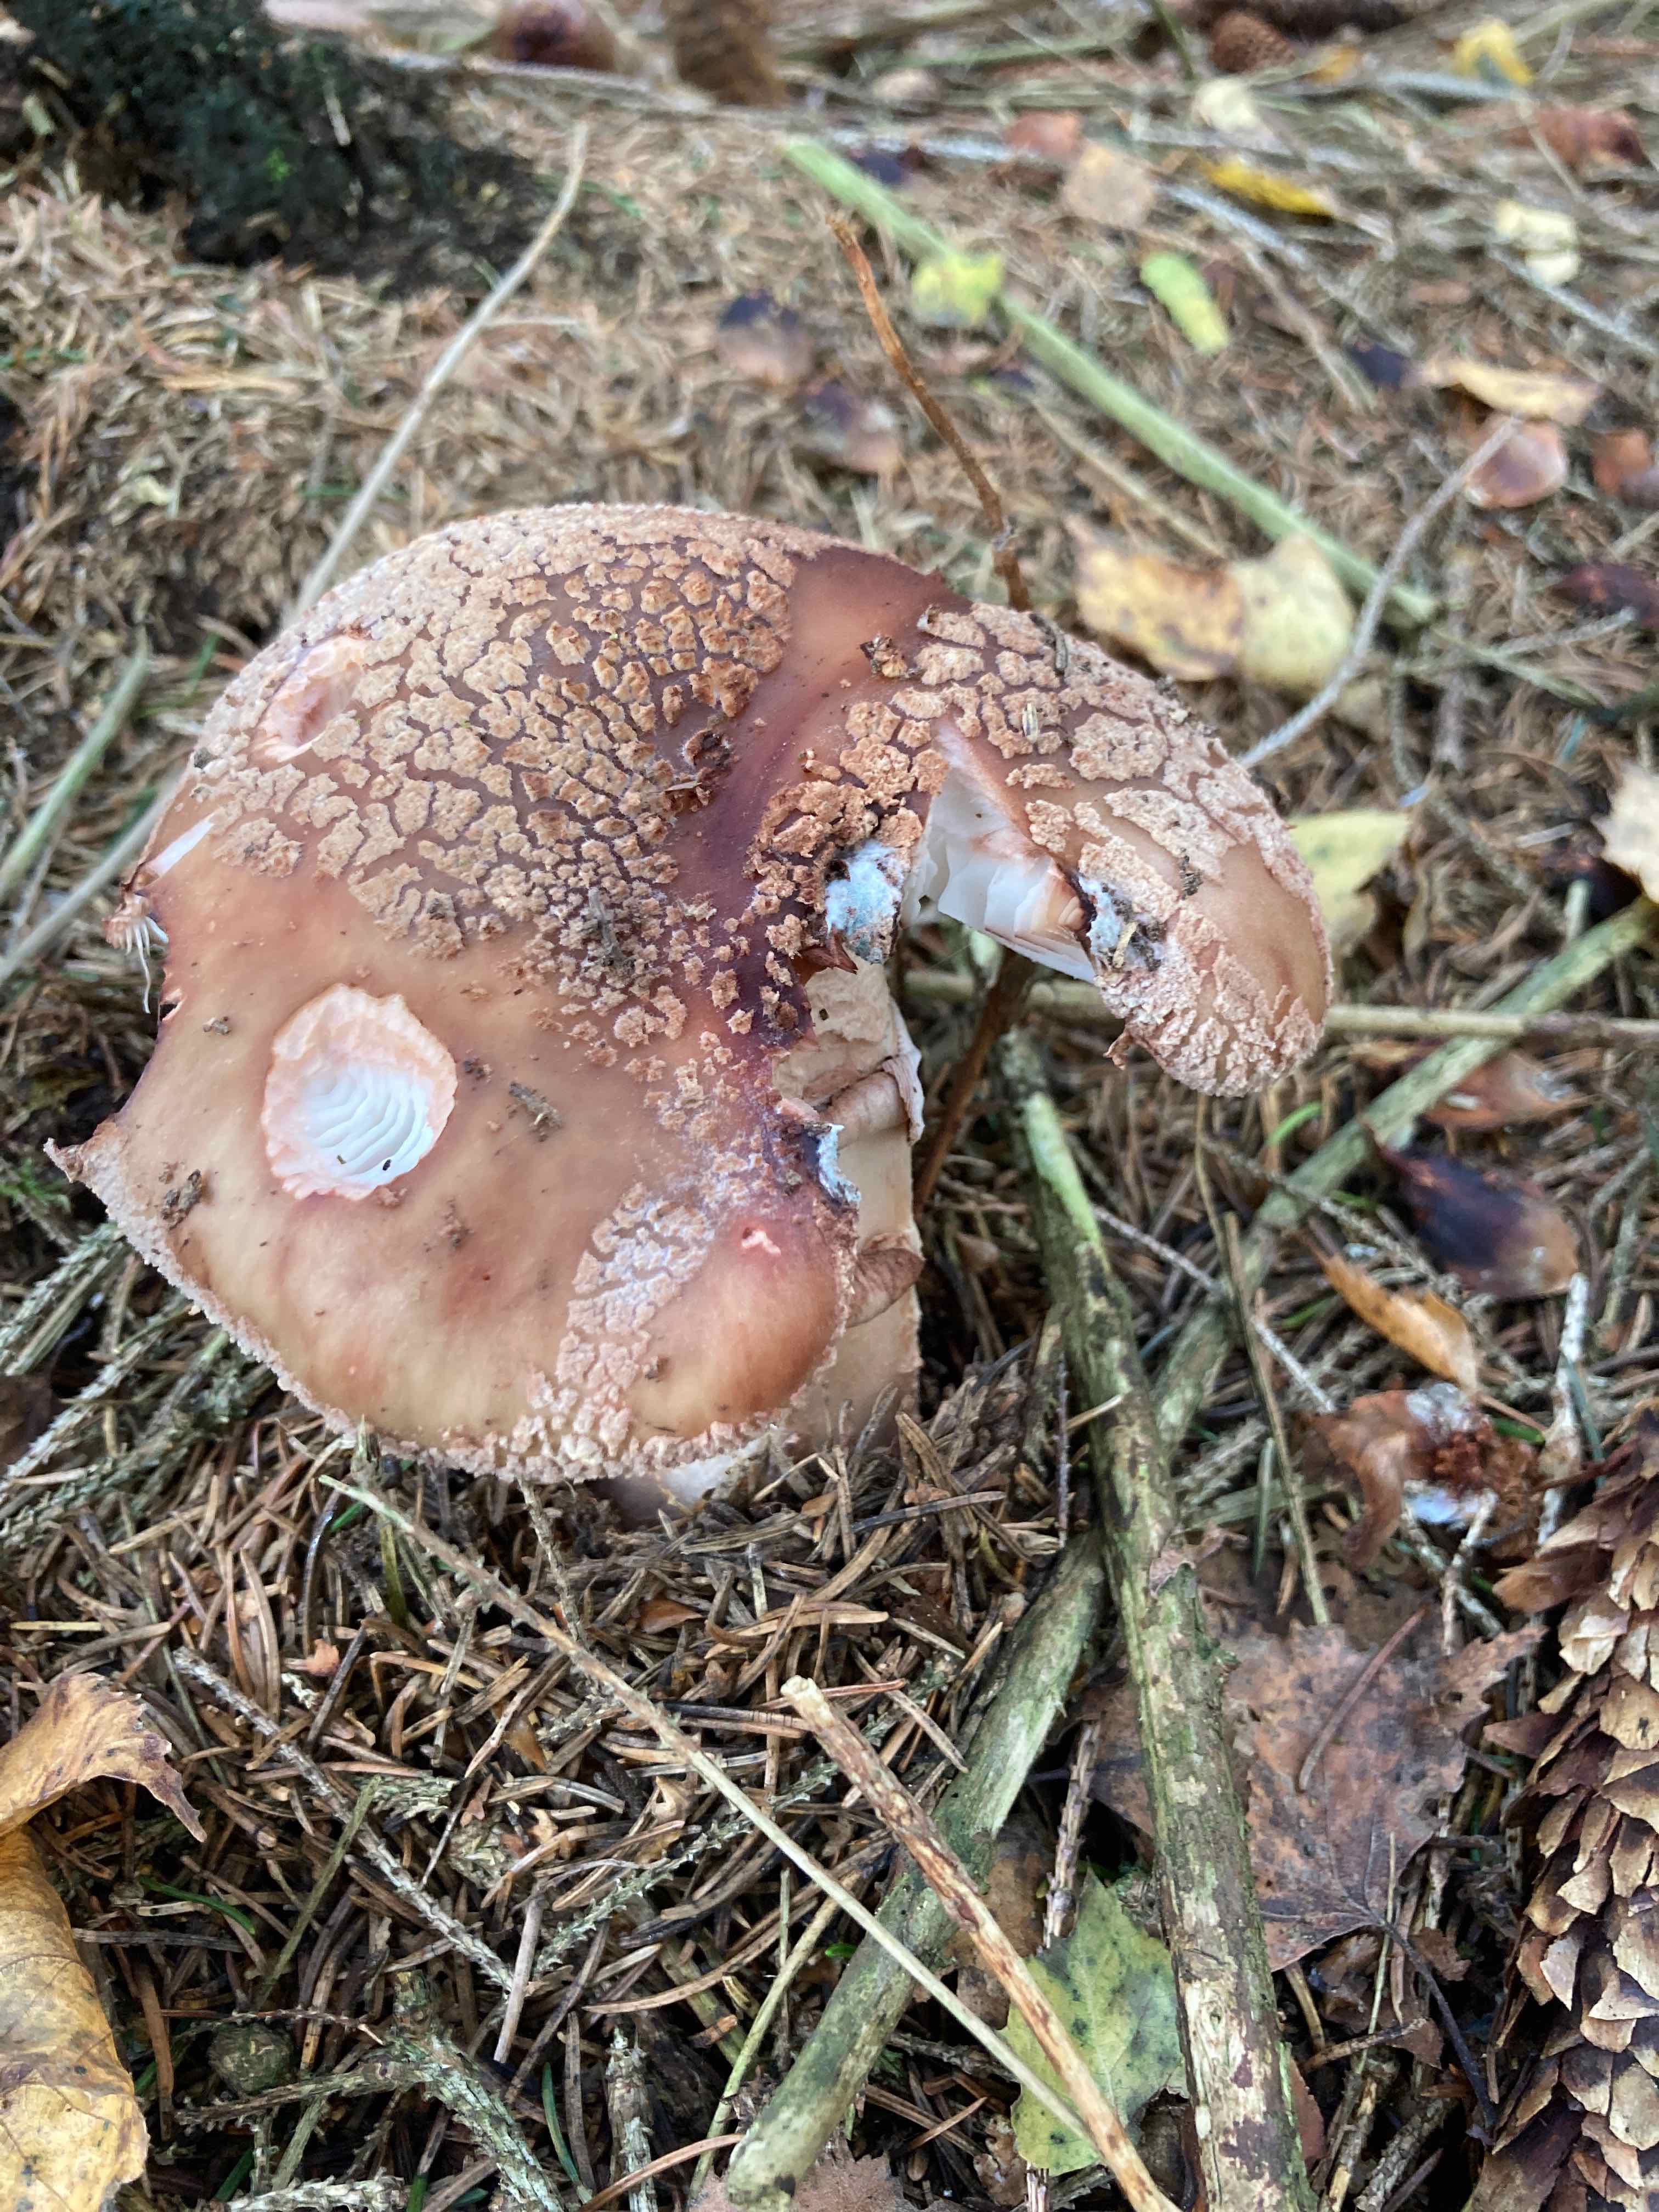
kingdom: Fungi
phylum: Basidiomycota
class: Agaricomycetes
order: Agaricales
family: Amanitaceae
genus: Amanita
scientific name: Amanita rubescens
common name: rødmende fluesvamp
